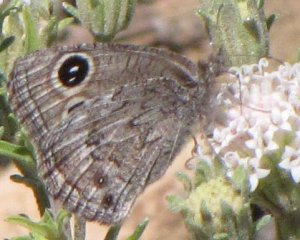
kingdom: Animalia
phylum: Arthropoda
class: Insecta
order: Lepidoptera
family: Nymphalidae
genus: Cercyonis
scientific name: Cercyonis oetus
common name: Small Wood-Nymph
